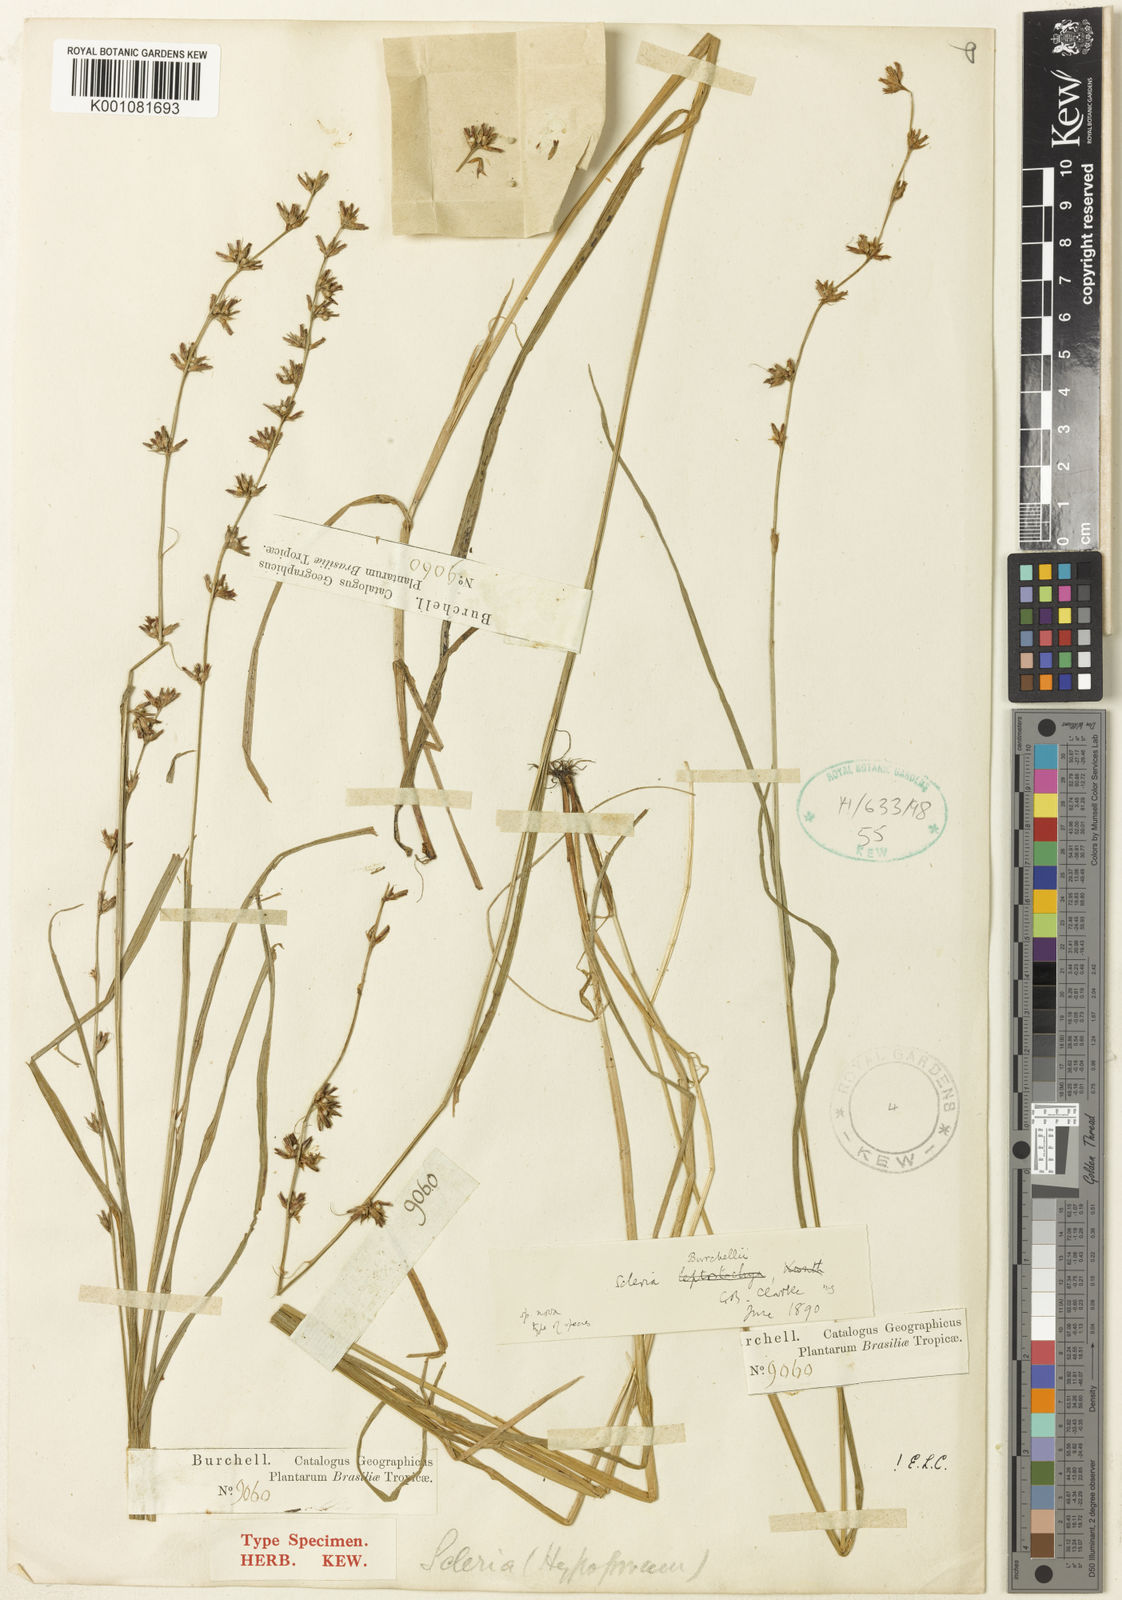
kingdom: Plantae
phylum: Tracheophyta
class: Liliopsida
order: Poales
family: Cyperaceae
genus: Scleria
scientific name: Scleria burchellii
